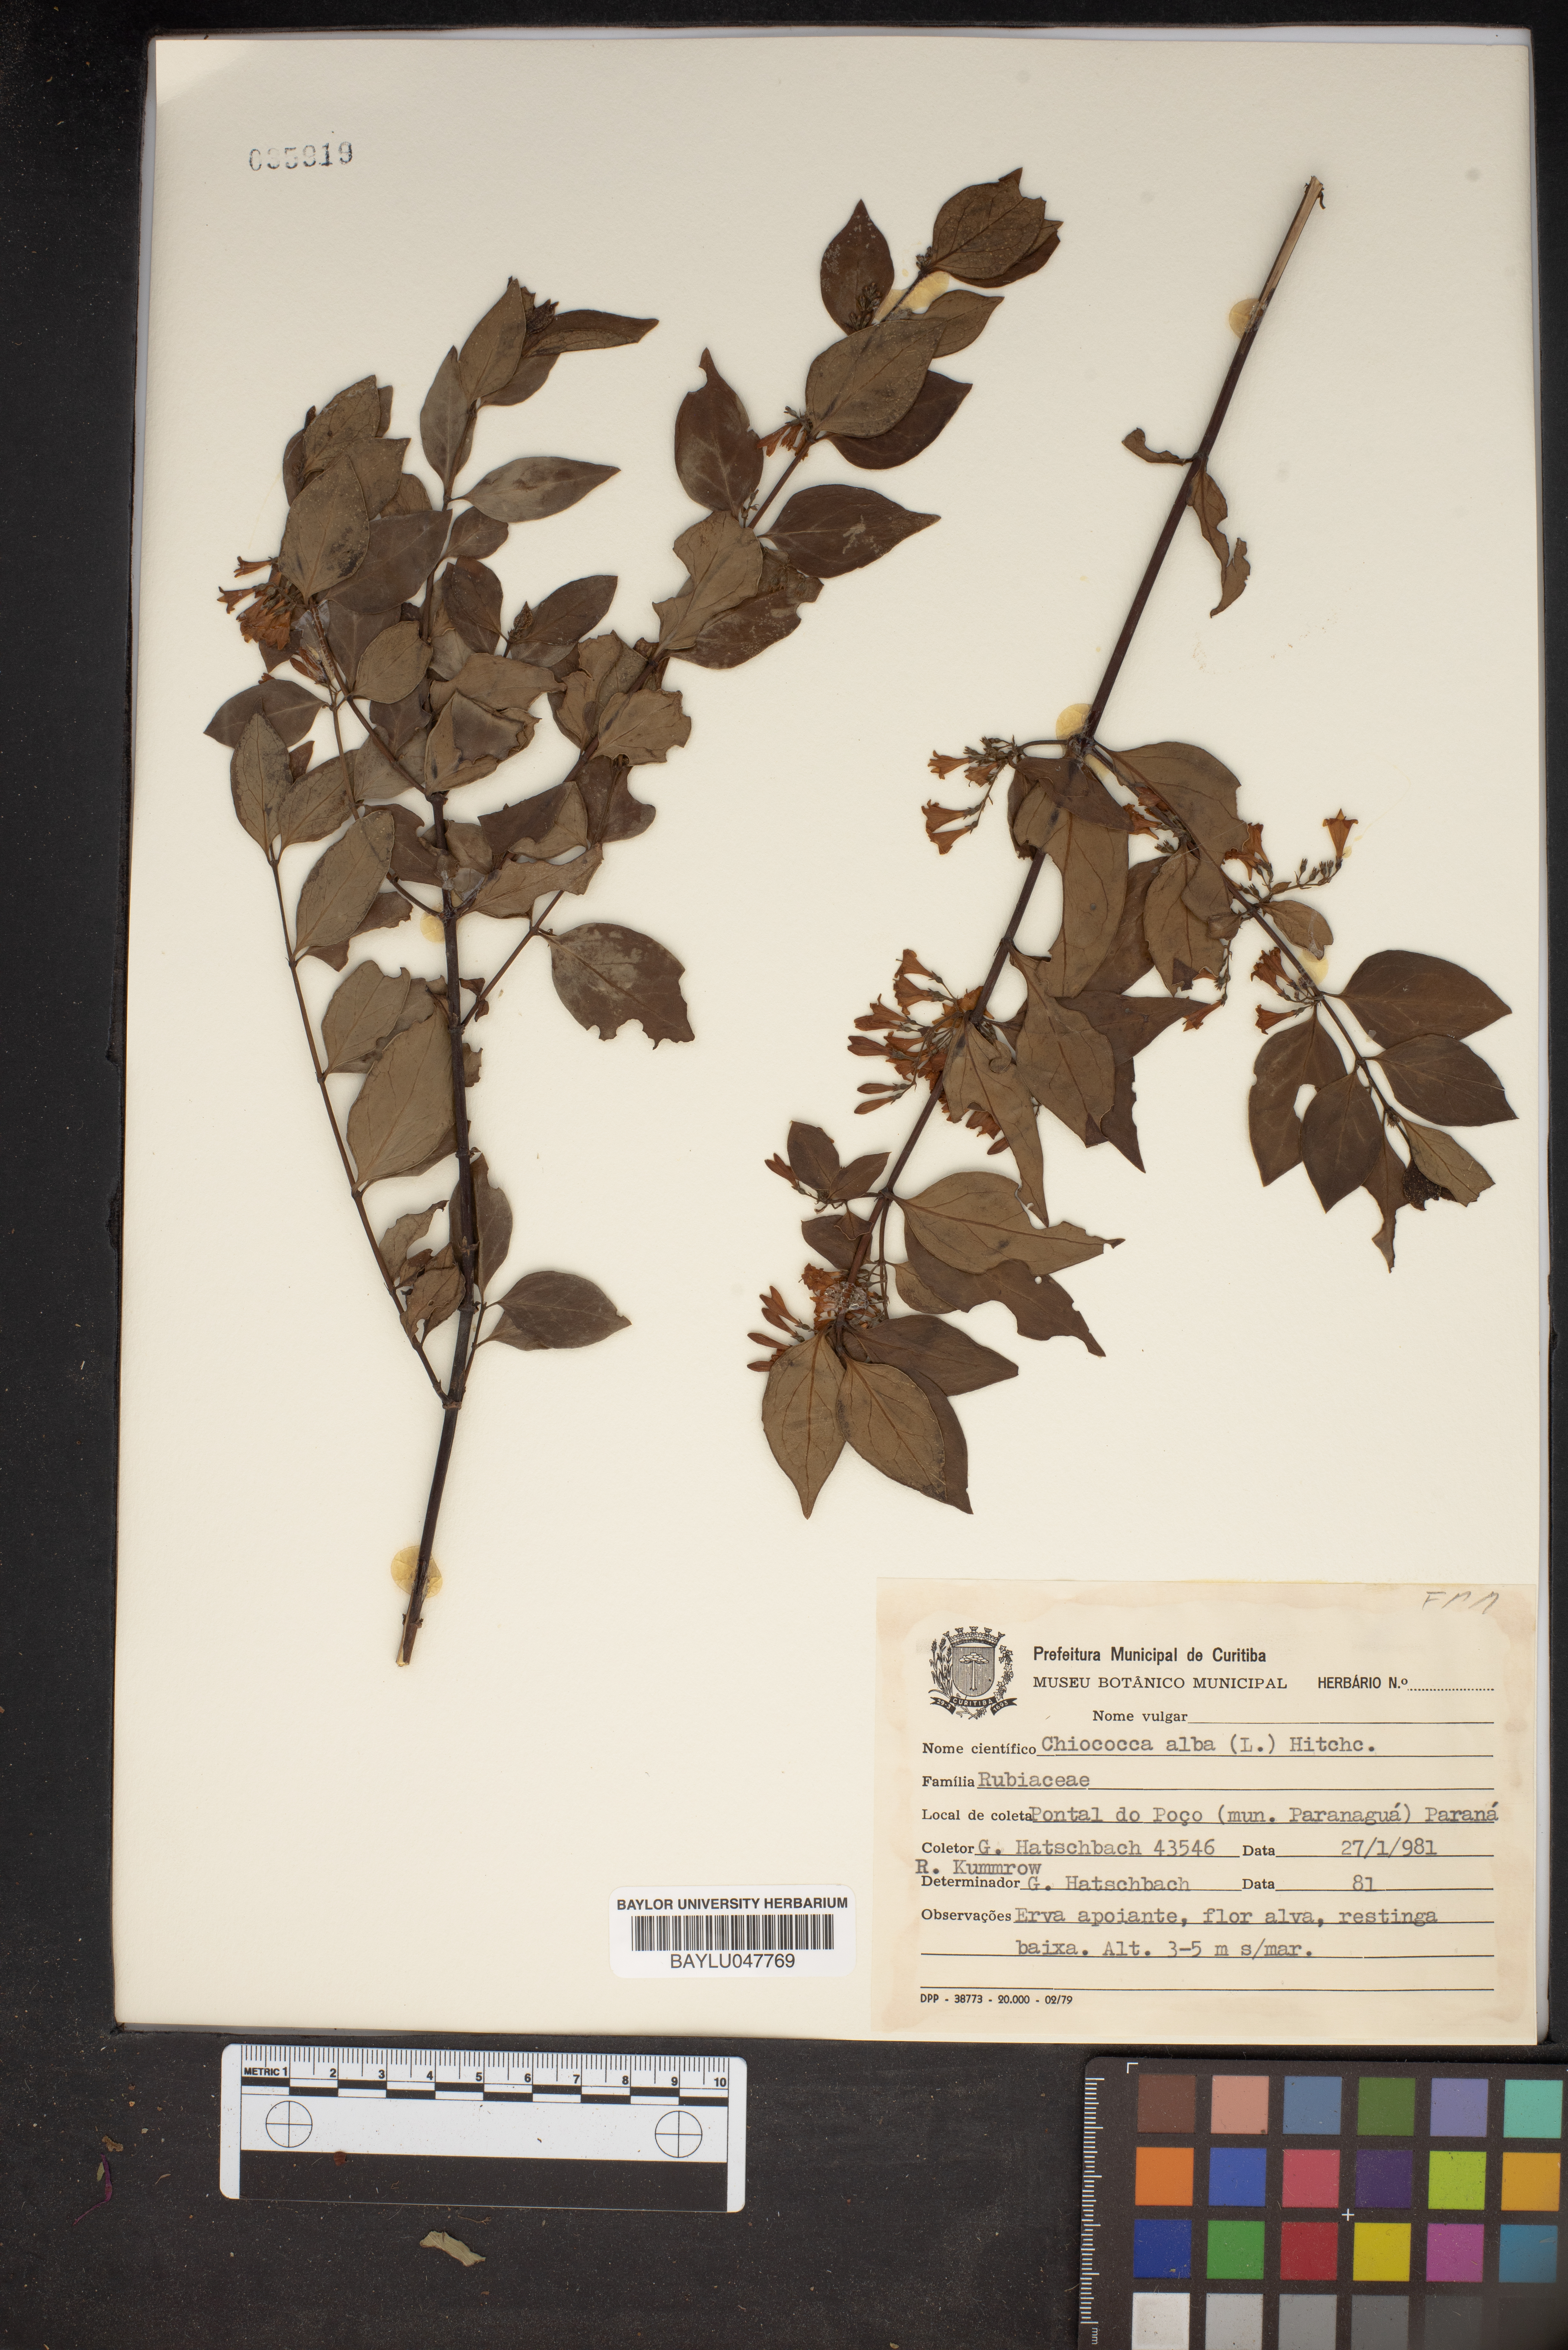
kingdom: Plantae
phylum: Tracheophyta
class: Magnoliopsida
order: Gentianales
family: Rubiaceae
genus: Chiococca
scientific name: Chiococca alba
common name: Snowberry
